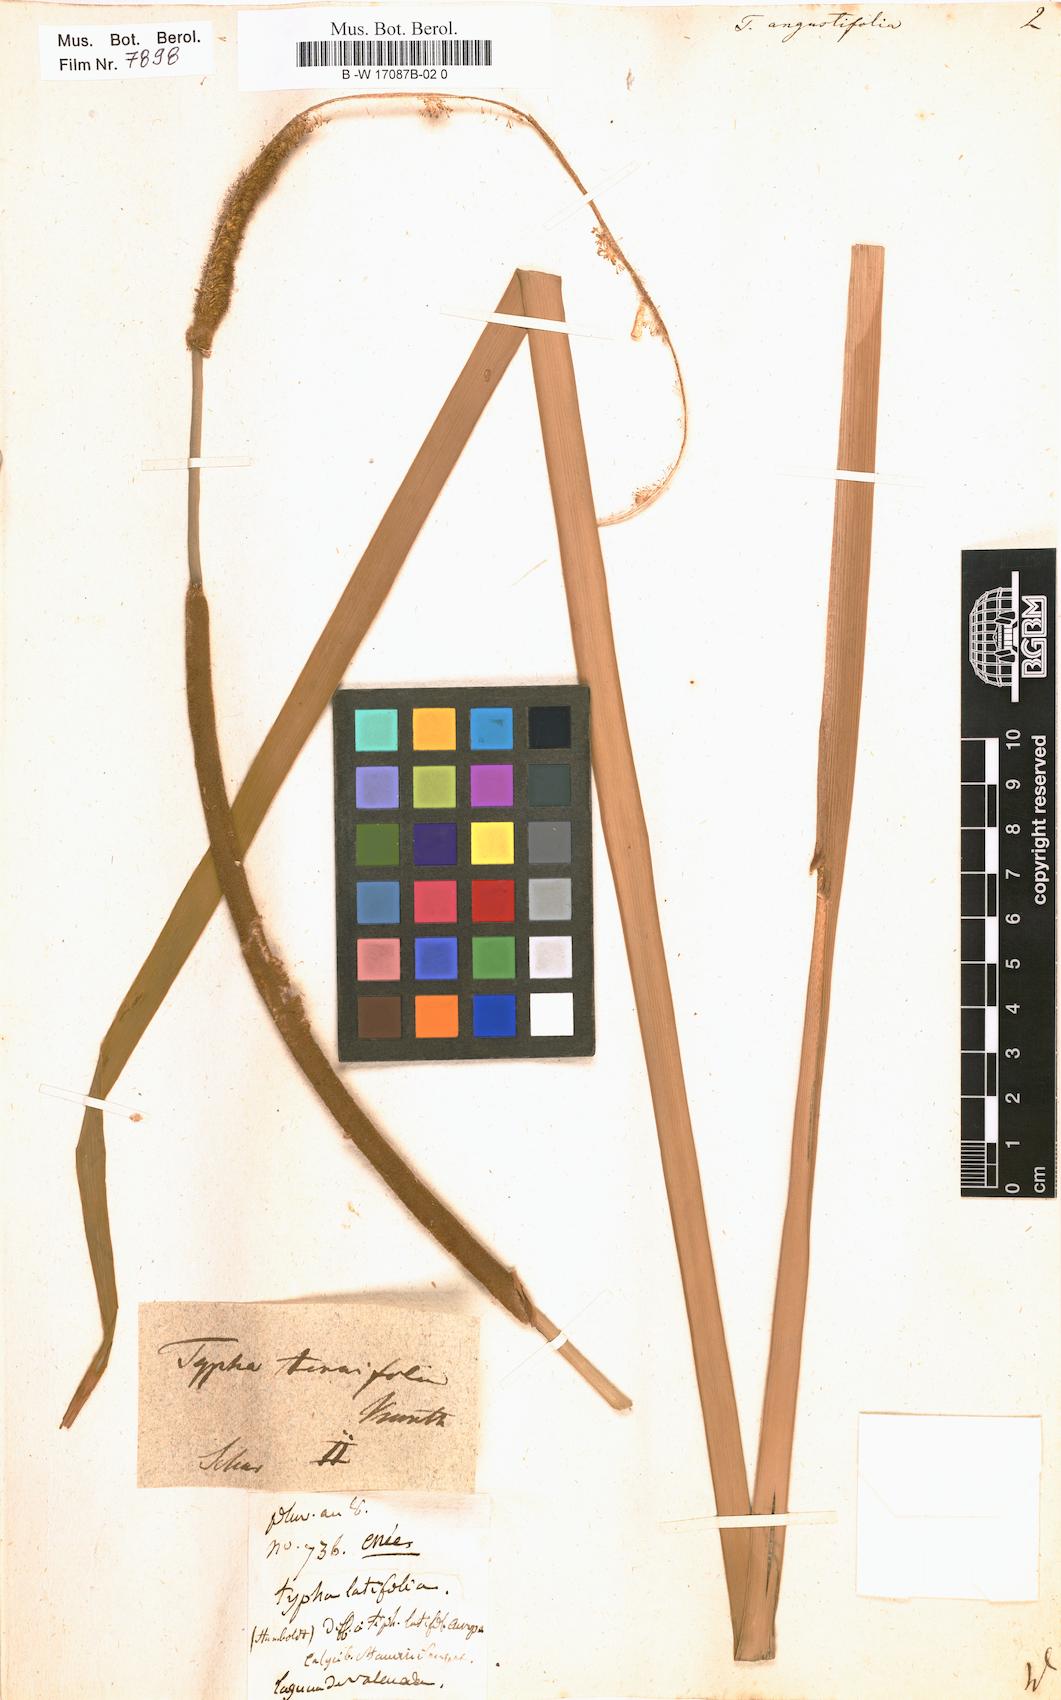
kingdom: Plantae
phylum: Tracheophyta
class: Liliopsida
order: Poales
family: Typhaceae
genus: Typha
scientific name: Typha angustifolia
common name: Lesser bulrush
